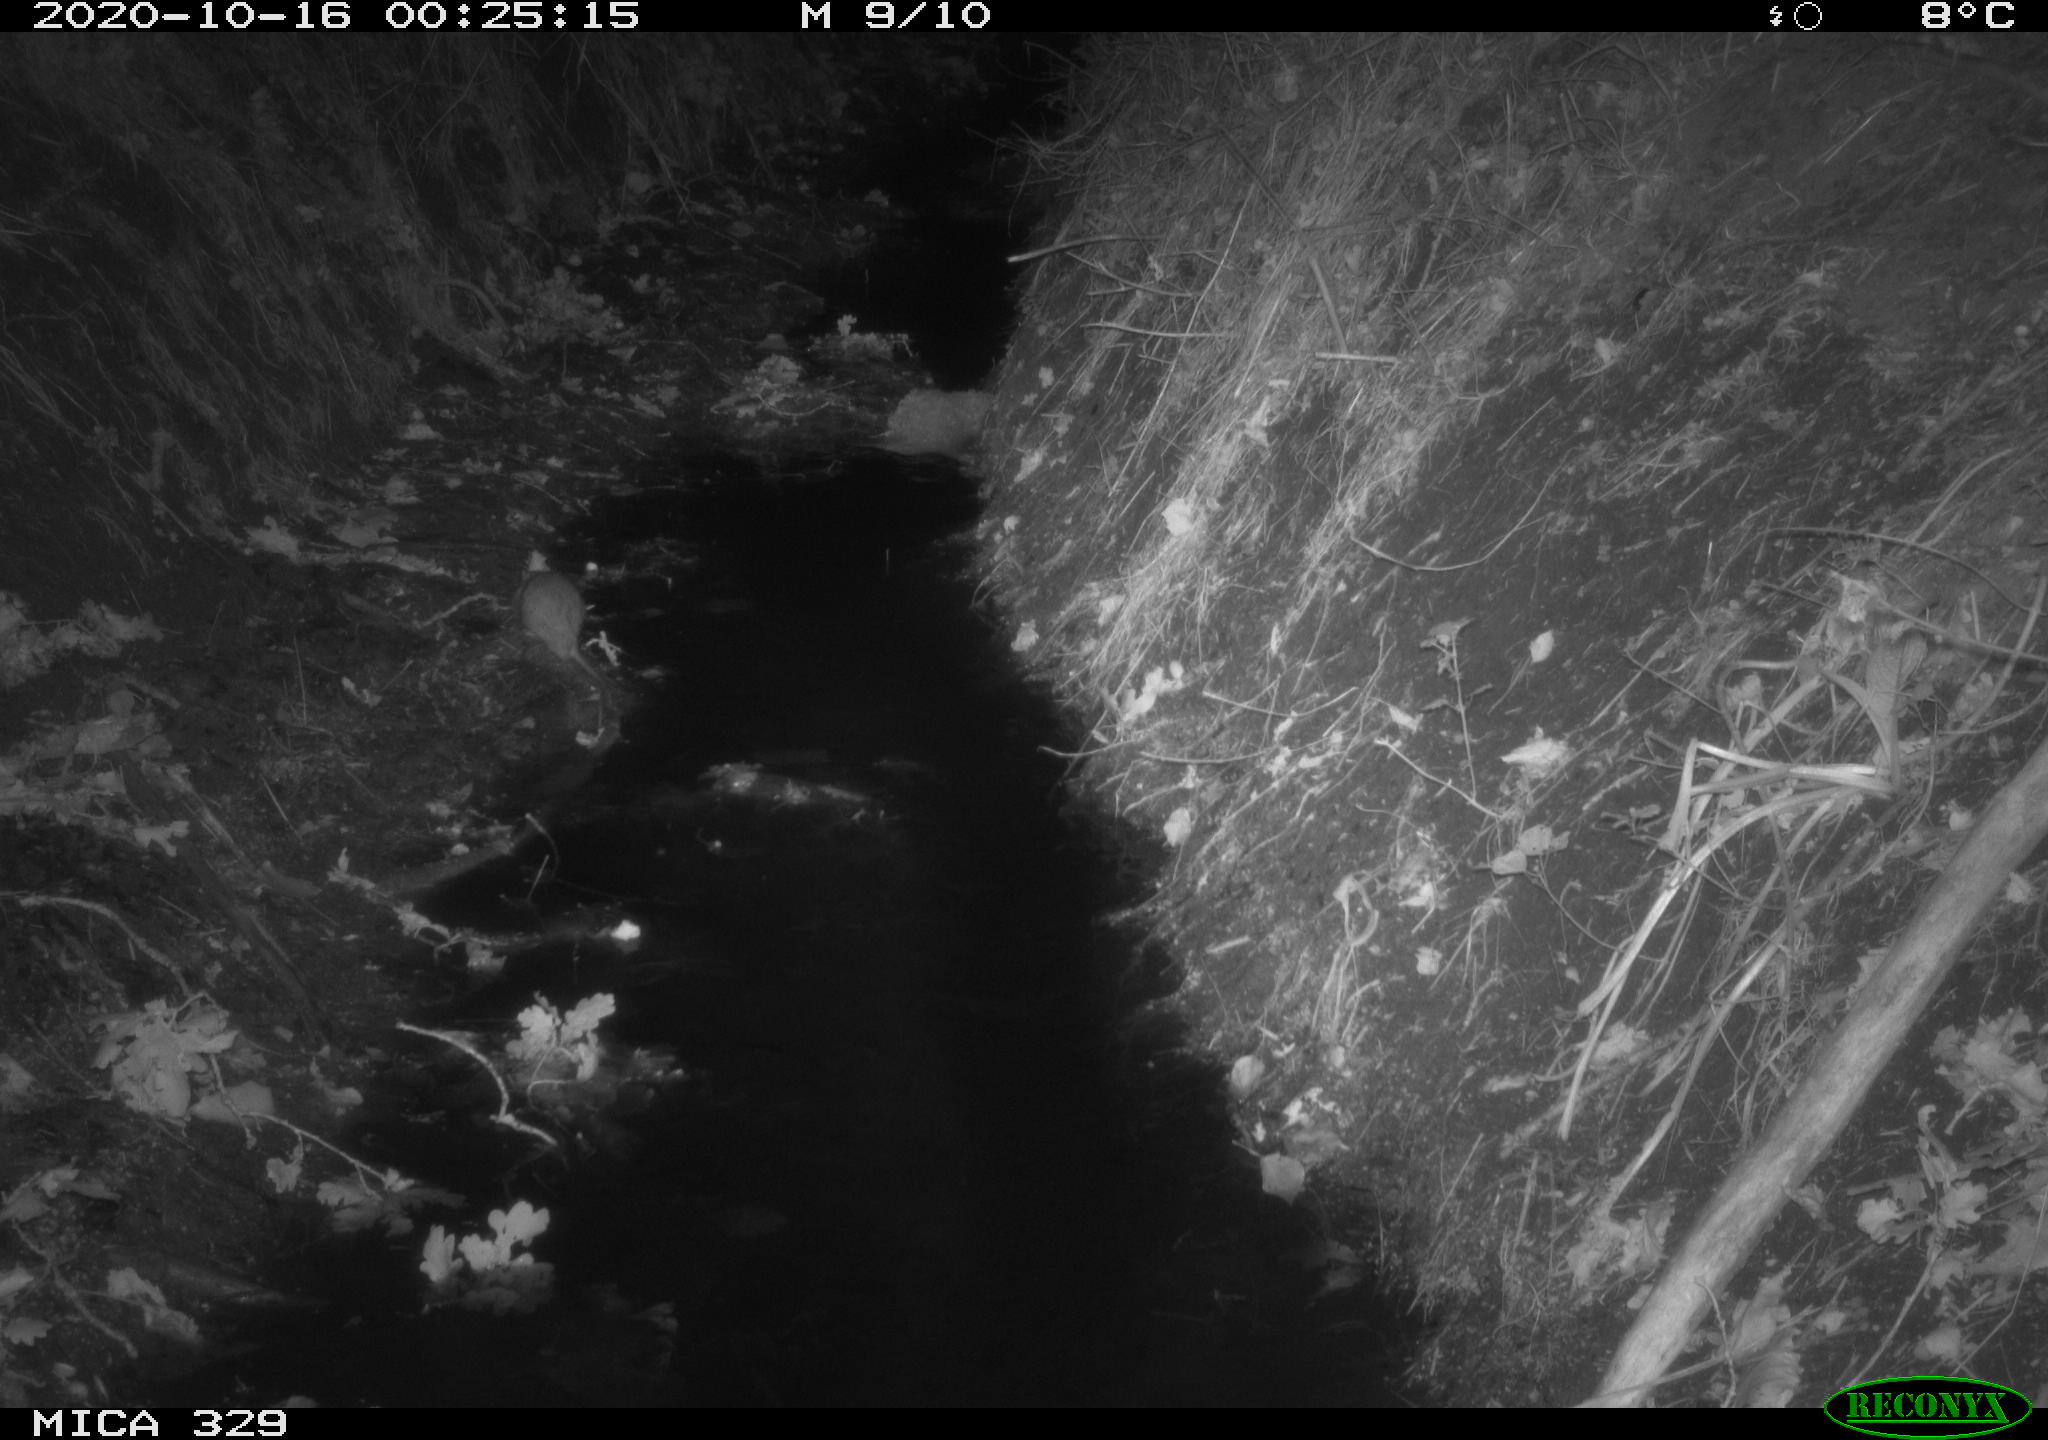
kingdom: Animalia
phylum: Chordata
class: Mammalia
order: Rodentia
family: Muridae
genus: Rattus
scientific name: Rattus norvegicus
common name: Brown rat
